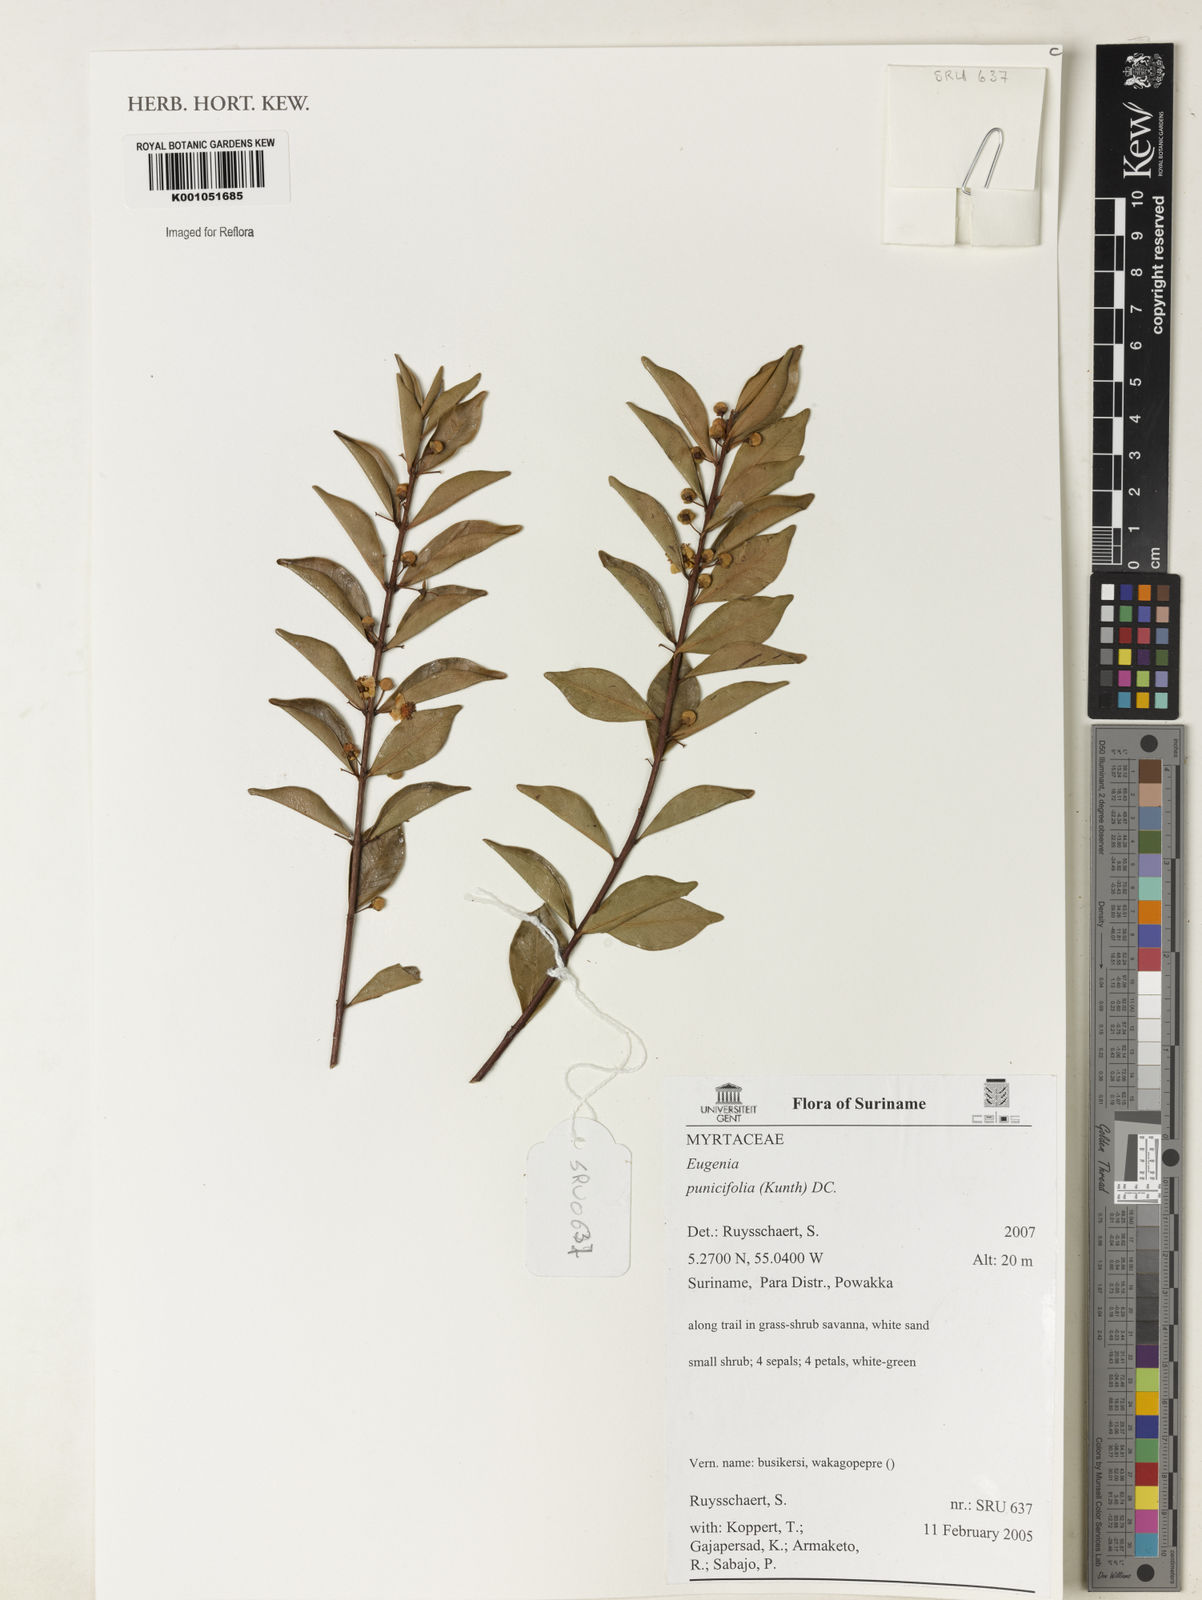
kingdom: Plantae
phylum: Tracheophyta
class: Magnoliopsida
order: Myrtales
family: Myrtaceae
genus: Eugenia
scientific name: Eugenia punicifolia
